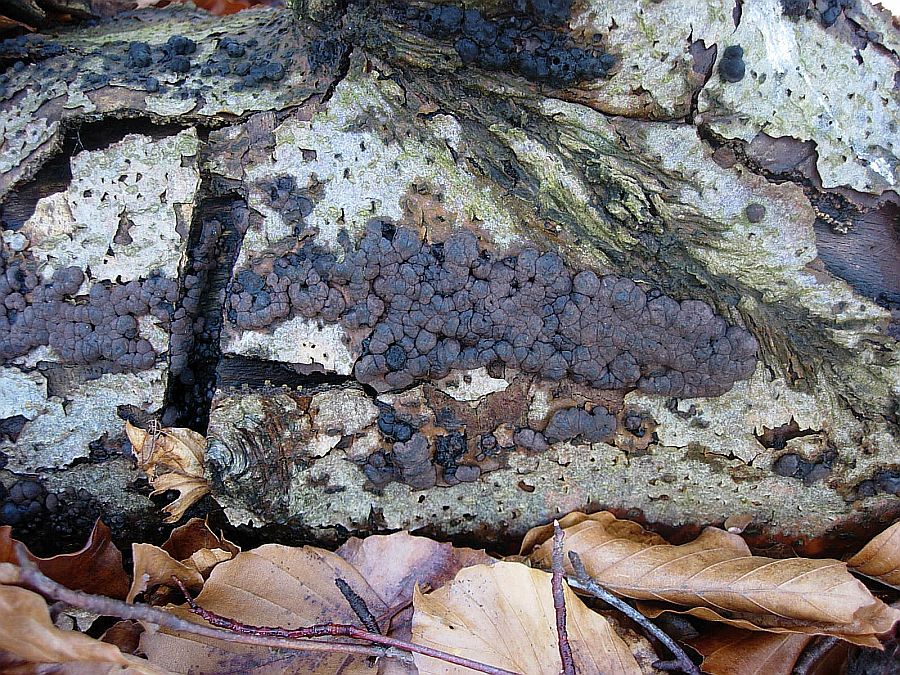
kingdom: Fungi
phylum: Ascomycota
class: Sordariomycetes
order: Xylariales
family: Hypoxylaceae
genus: Jackrogersella
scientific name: Jackrogersella cohaerens
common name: sammenflydende kulbær
